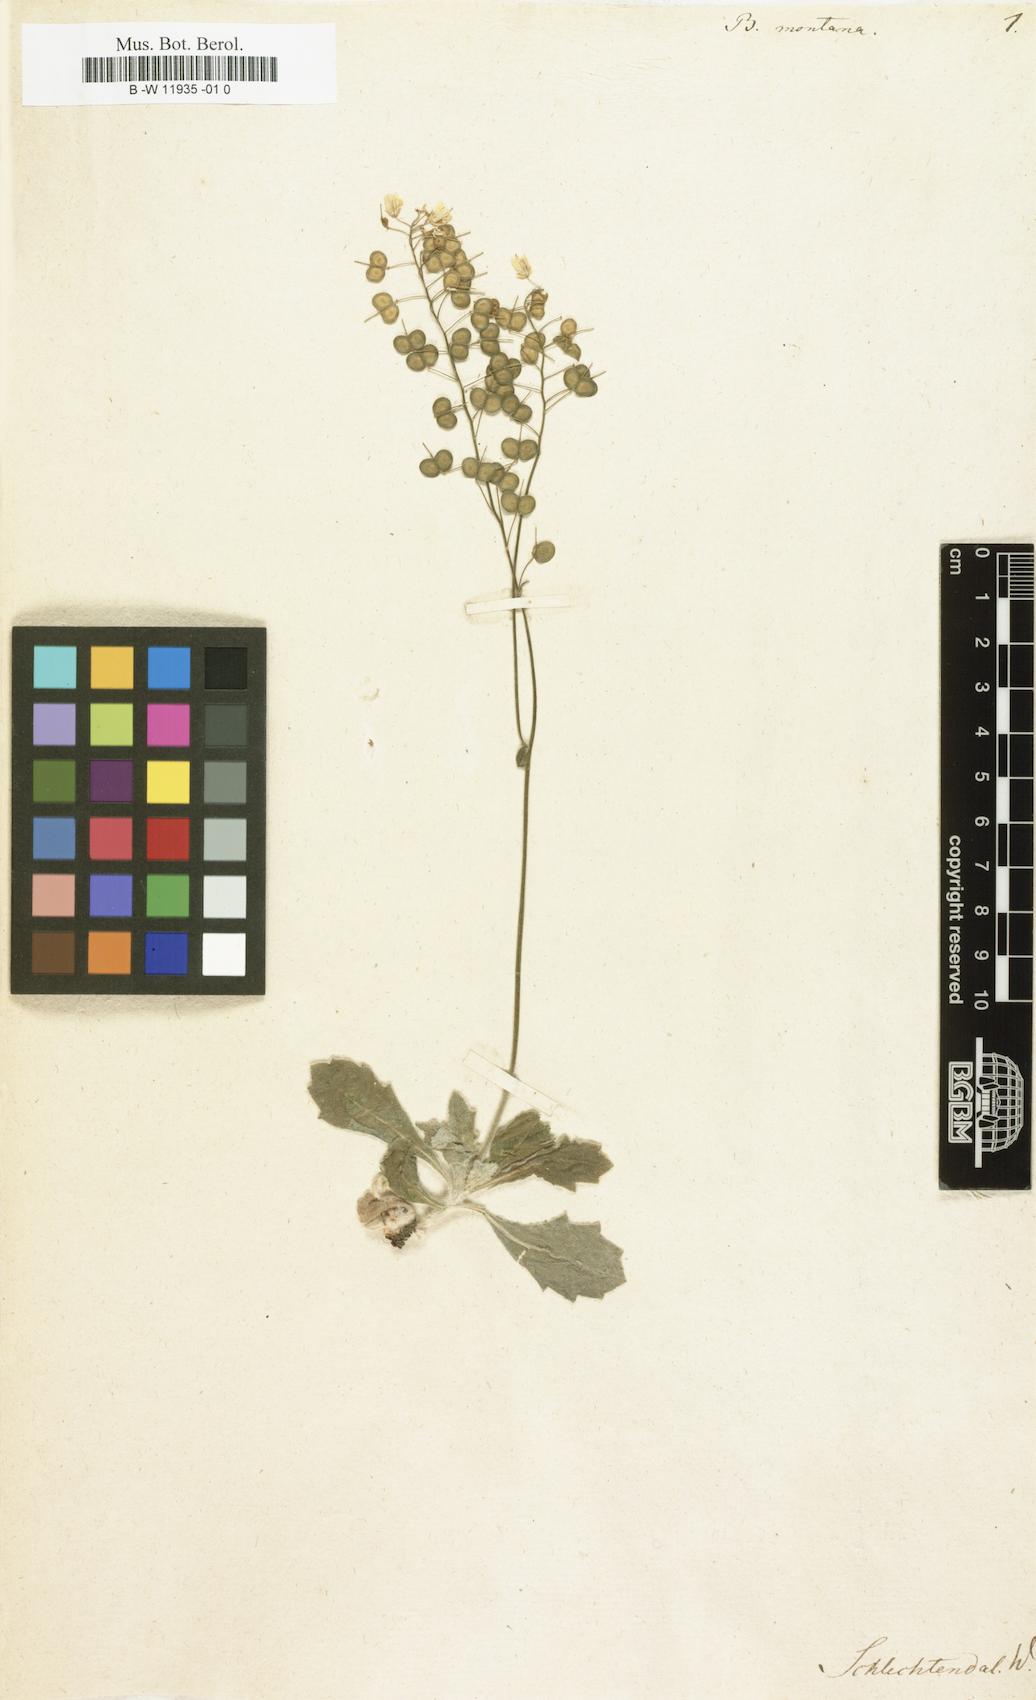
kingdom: Plantae
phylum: Tracheophyta
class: Magnoliopsida
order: Brassicales
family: Brassicaceae
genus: Biscutella
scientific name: Biscutella sempervirens
